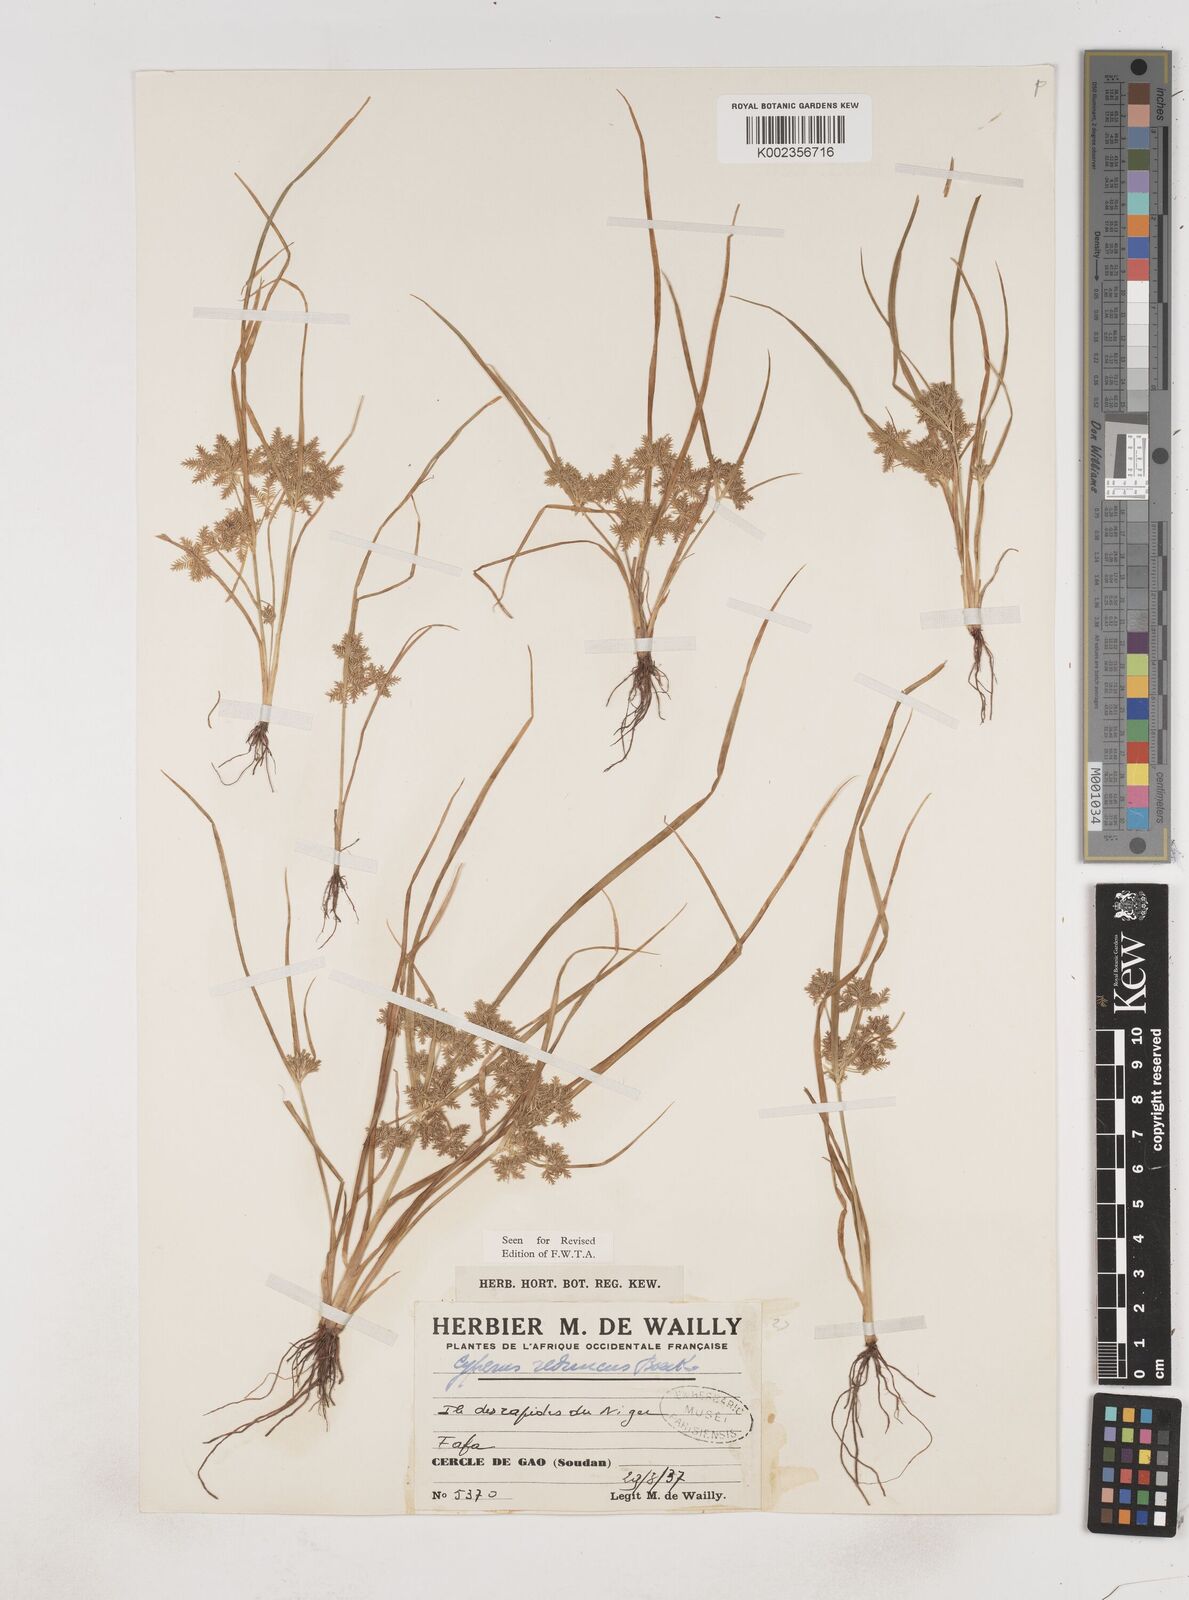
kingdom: Plantae
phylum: Tracheophyta
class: Liliopsida
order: Poales
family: Cyperaceae
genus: Cyperus
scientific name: Cyperus reduncus
